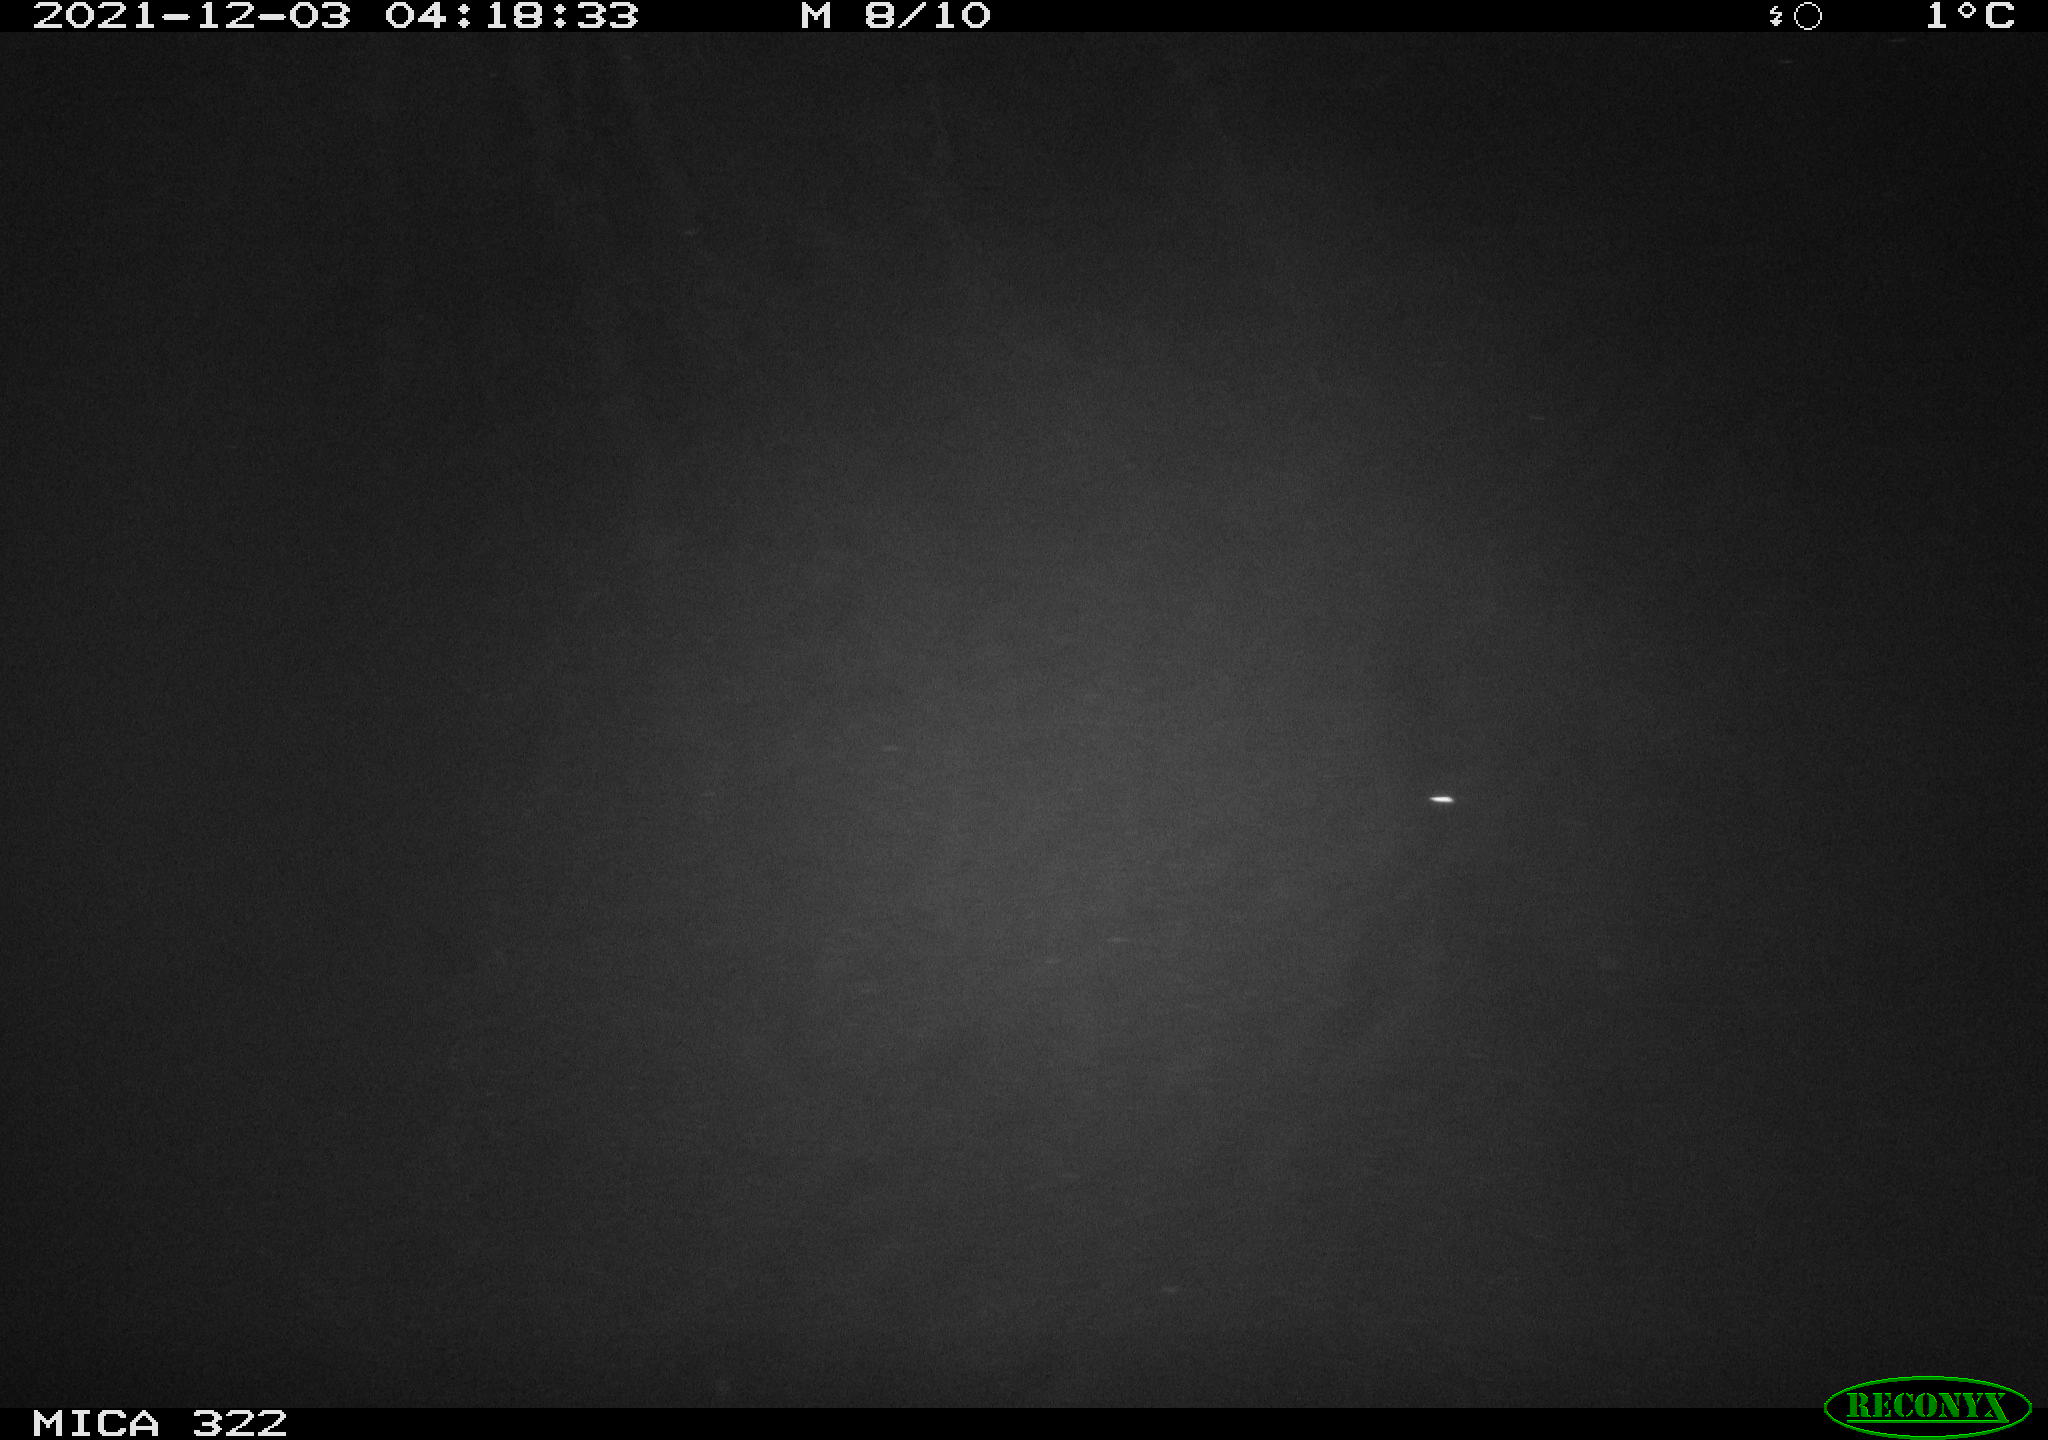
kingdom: Animalia
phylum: Chordata
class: Mammalia
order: Rodentia
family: Muridae
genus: Rattus
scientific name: Rattus norvegicus
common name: Brown rat
